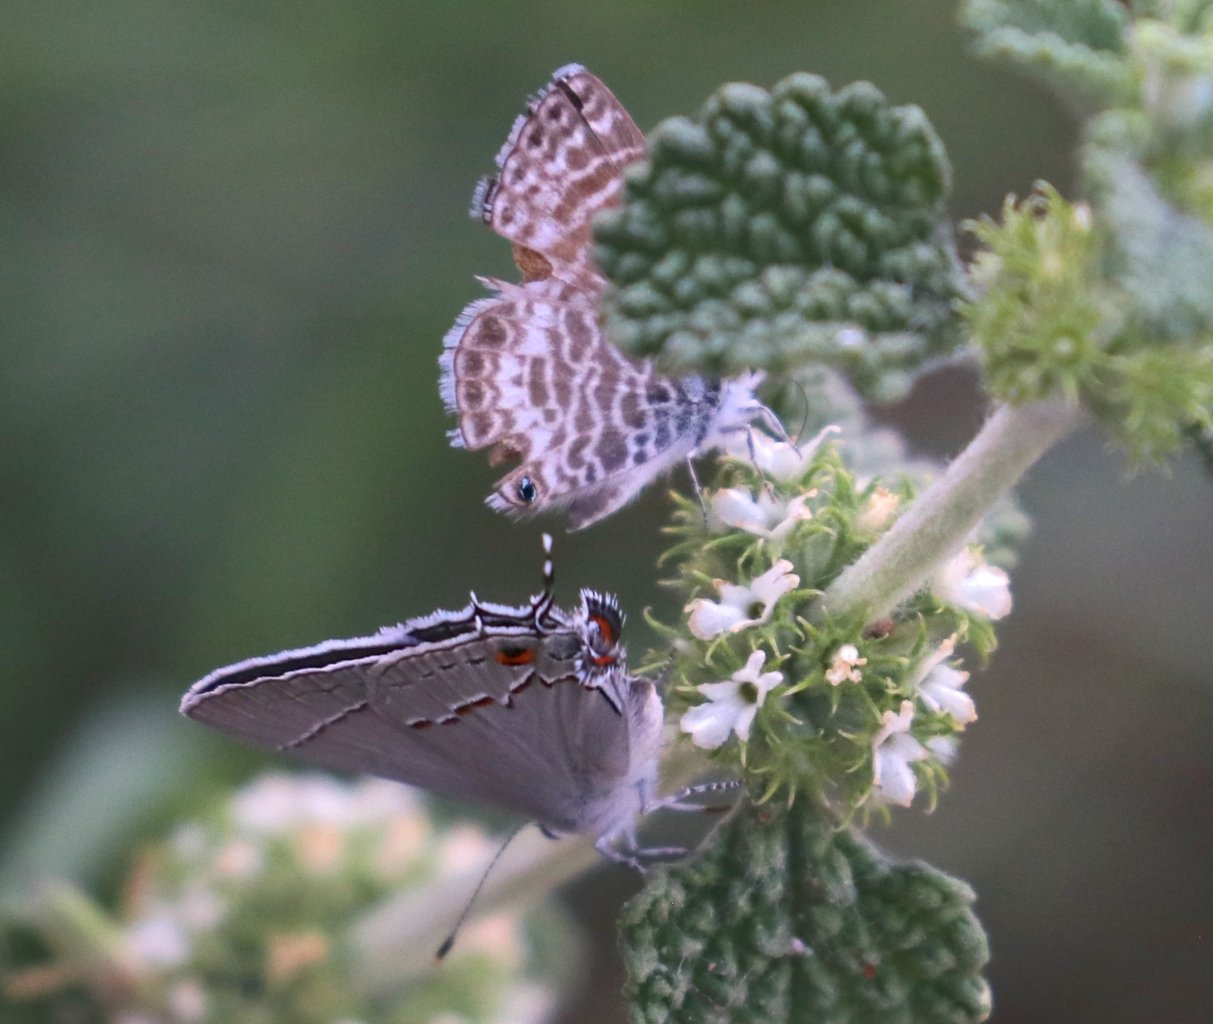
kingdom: Animalia
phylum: Arthropoda
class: Insecta
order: Lepidoptera
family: Lycaenidae
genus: Strymon
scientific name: Strymon melinus
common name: Gray Hairstreak
